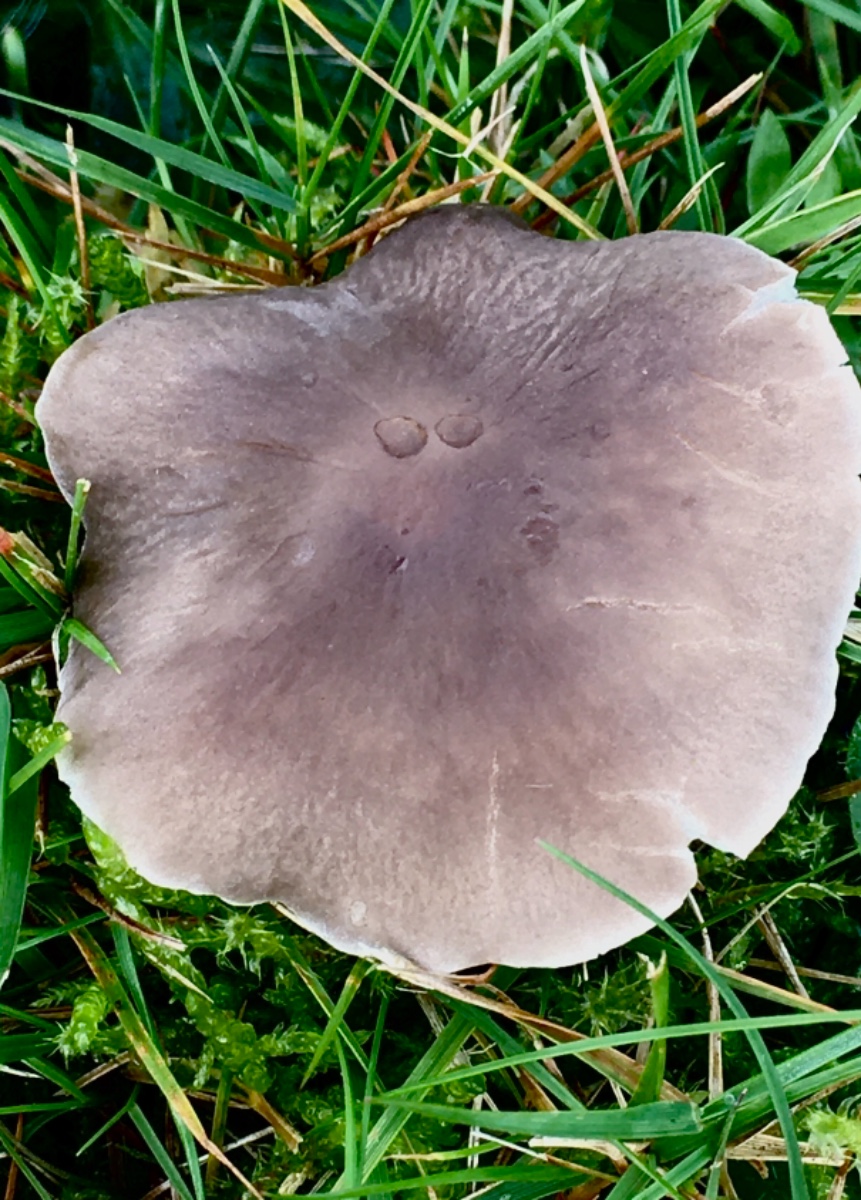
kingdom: Fungi
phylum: Basidiomycota
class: Agaricomycetes
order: Agaricales
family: Tricholomataceae
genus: Dermoloma
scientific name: Dermoloma cuneifolium
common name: eng-nonnehat
